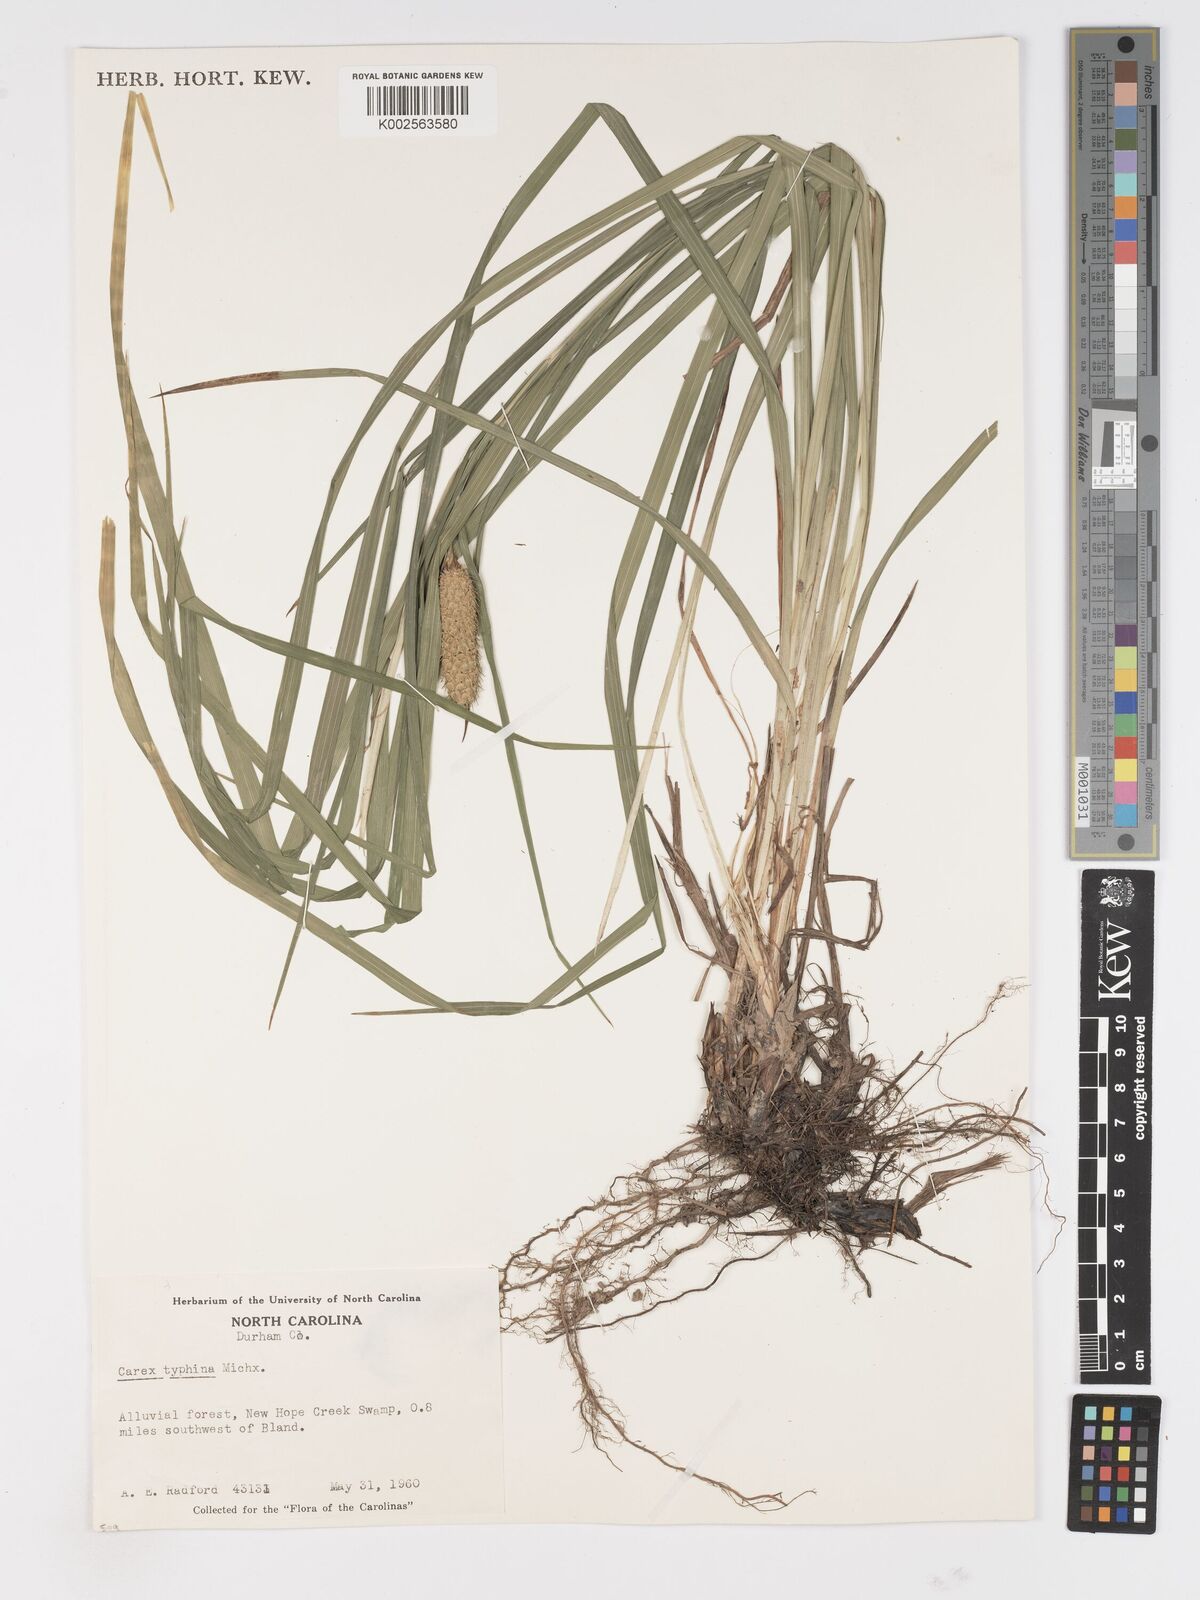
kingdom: Plantae
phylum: Tracheophyta
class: Liliopsida
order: Poales
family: Cyperaceae
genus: Carex
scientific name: Carex typhina
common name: Cattail sedge
